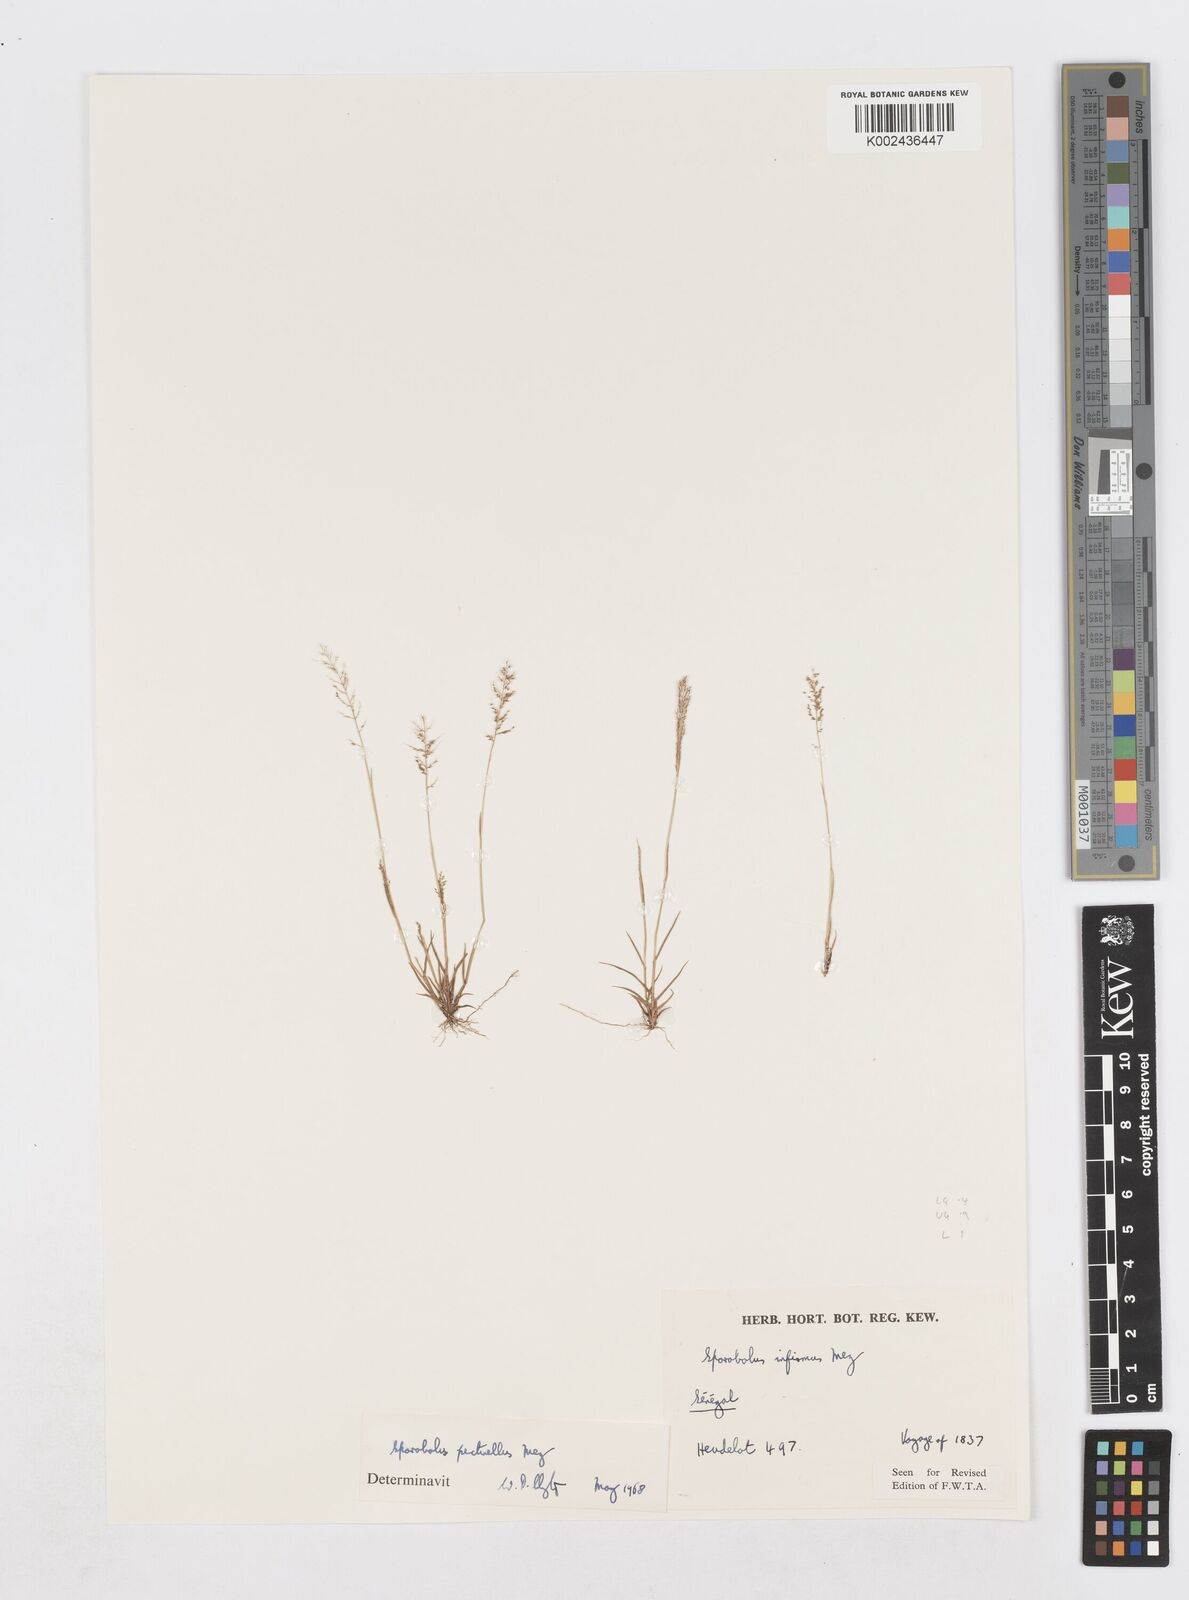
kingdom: Plantae
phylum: Tracheophyta
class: Liliopsida
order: Poales
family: Poaceae
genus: Sporobolus
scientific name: Sporobolus pectinellus
